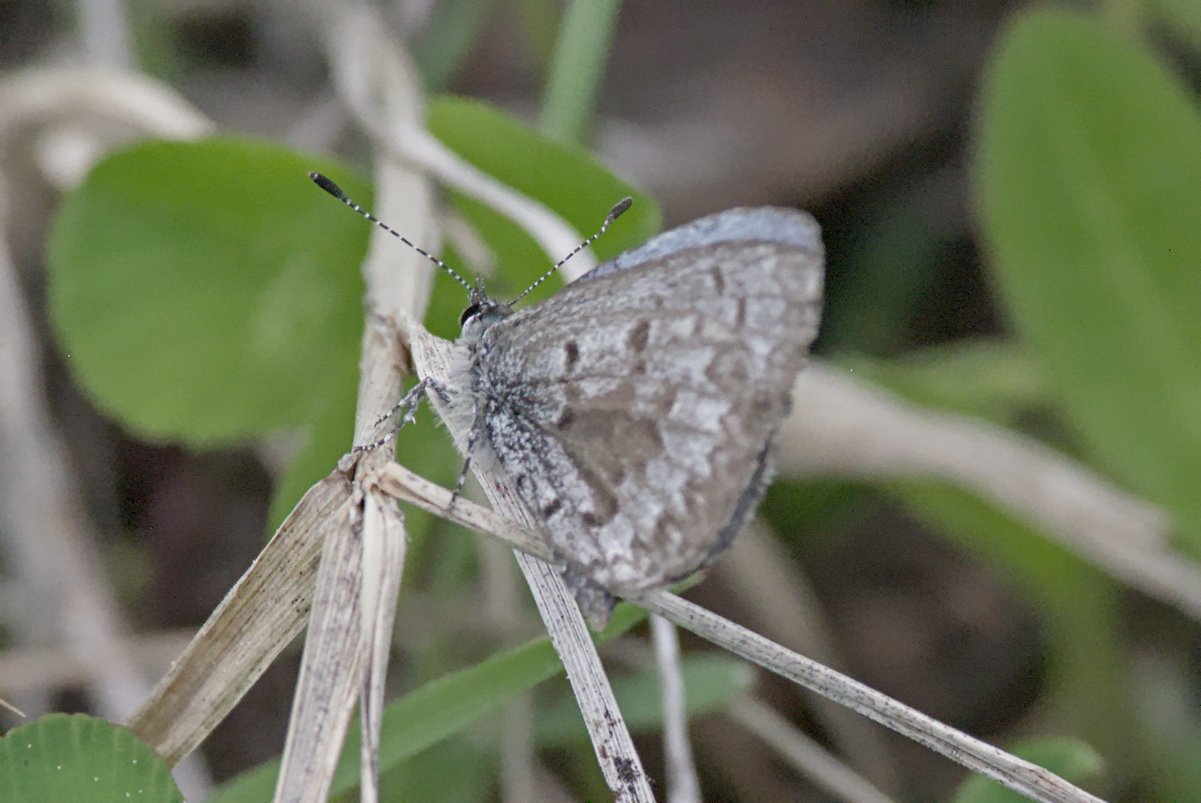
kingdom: Animalia
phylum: Arthropoda
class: Insecta
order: Lepidoptera
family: Lycaenidae
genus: Celastrina
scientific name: Celastrina lucia
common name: Northern Spring Azure
